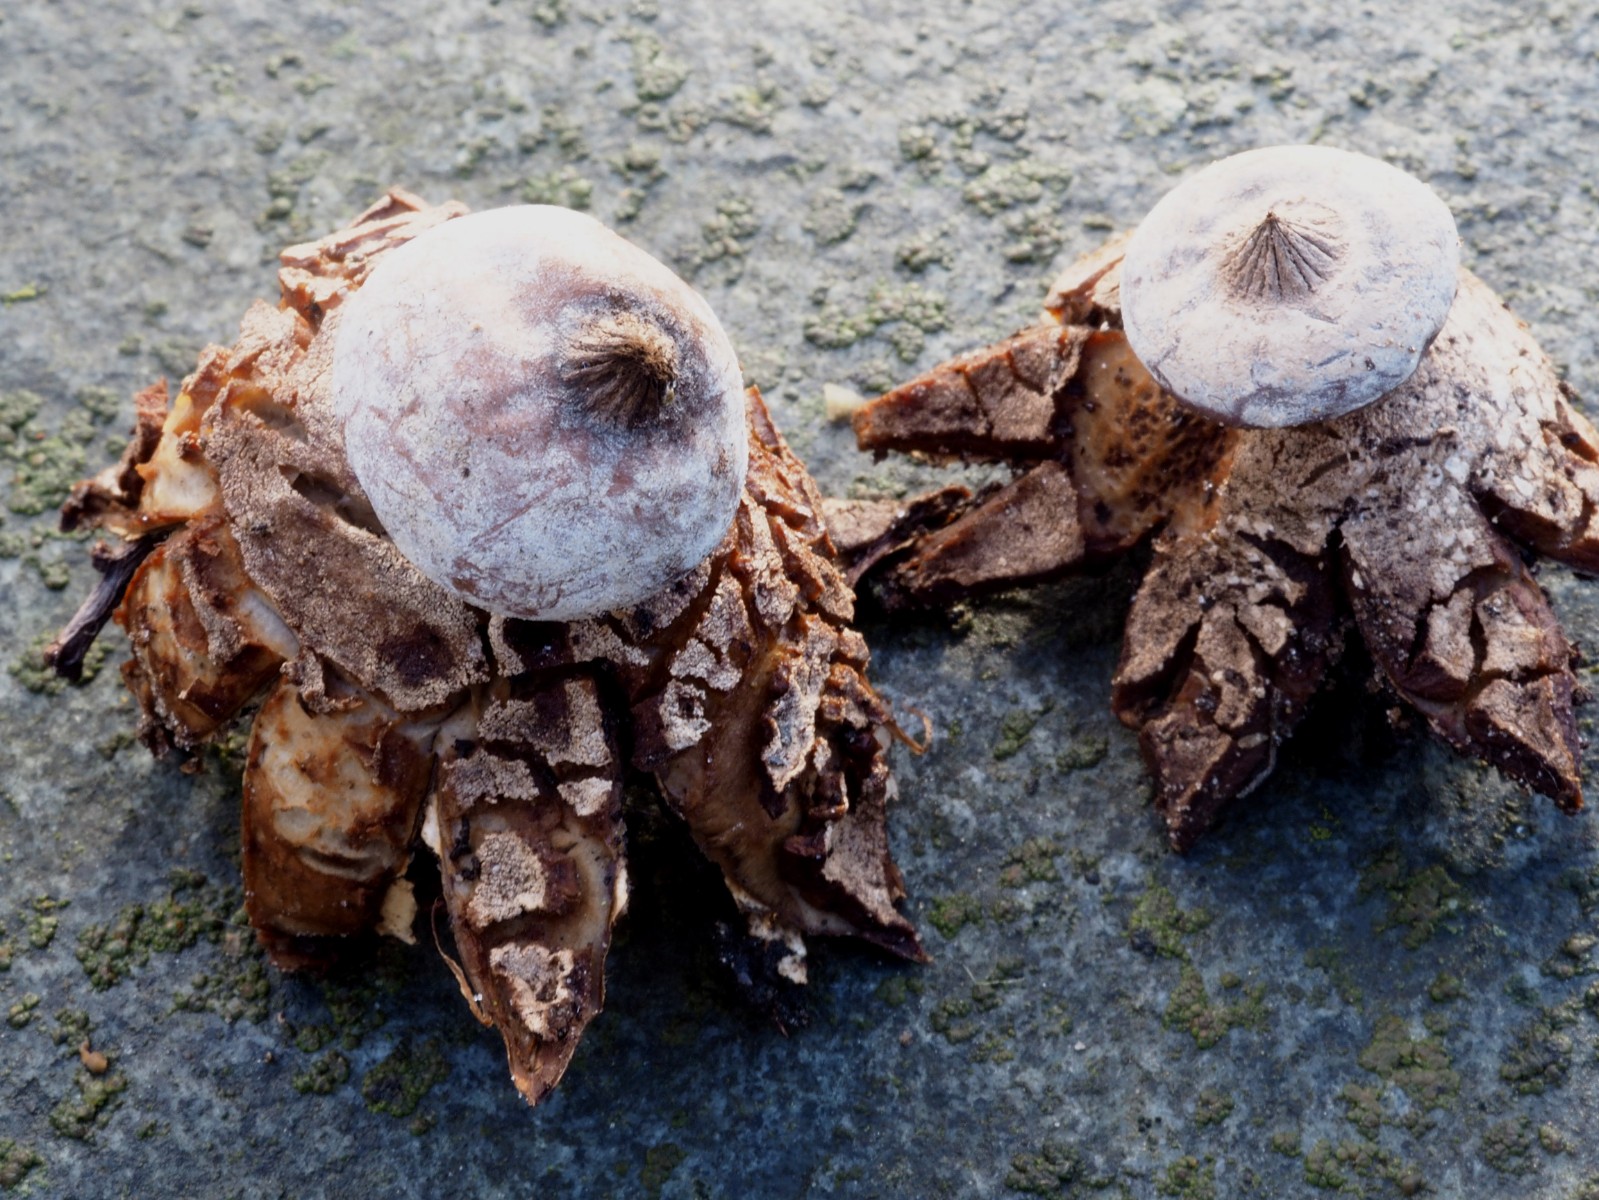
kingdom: Fungi
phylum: Basidiomycota
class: Agaricomycetes
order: Geastrales
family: Geastraceae
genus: Geastrum
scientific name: Geastrum striatum
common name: krave-stjernebold
